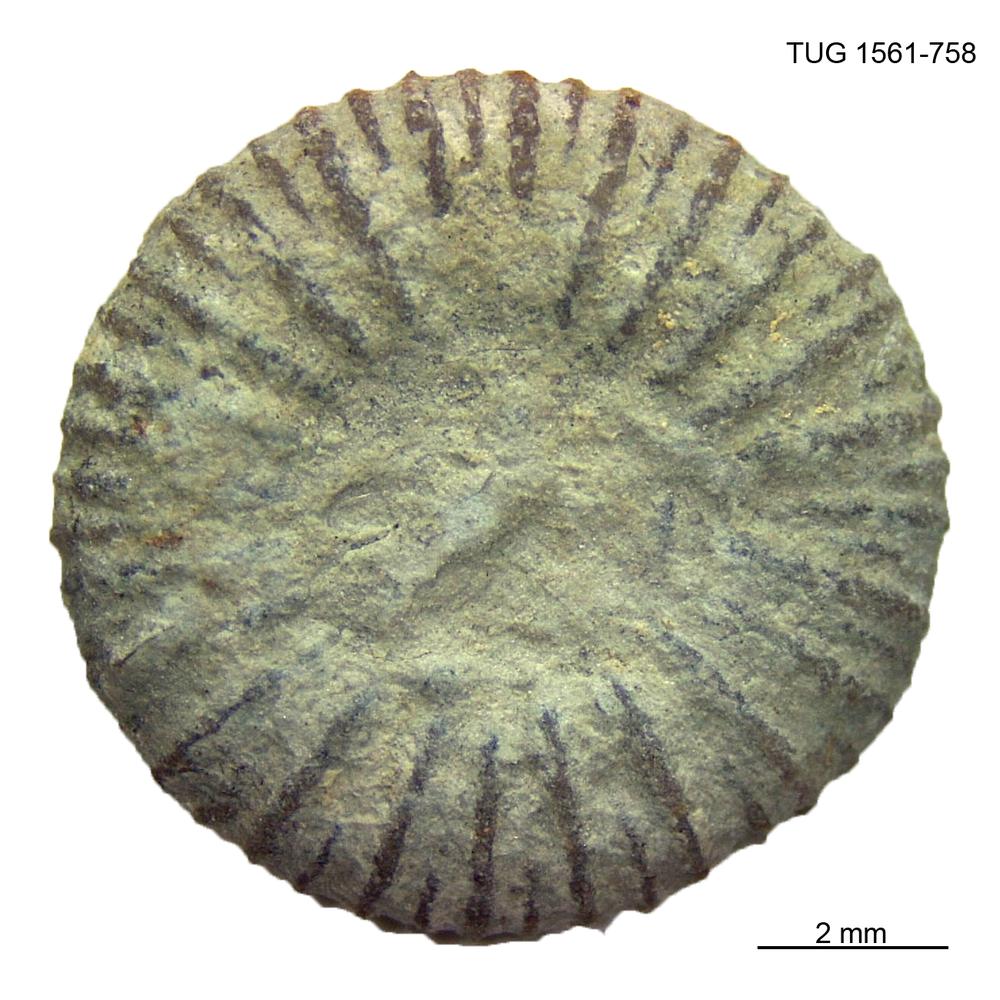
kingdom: Animalia
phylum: Cnidaria
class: Anthozoa
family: Palaeocyclidae
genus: Palaeocyclus
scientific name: Palaeocyclus Porpites porpita
